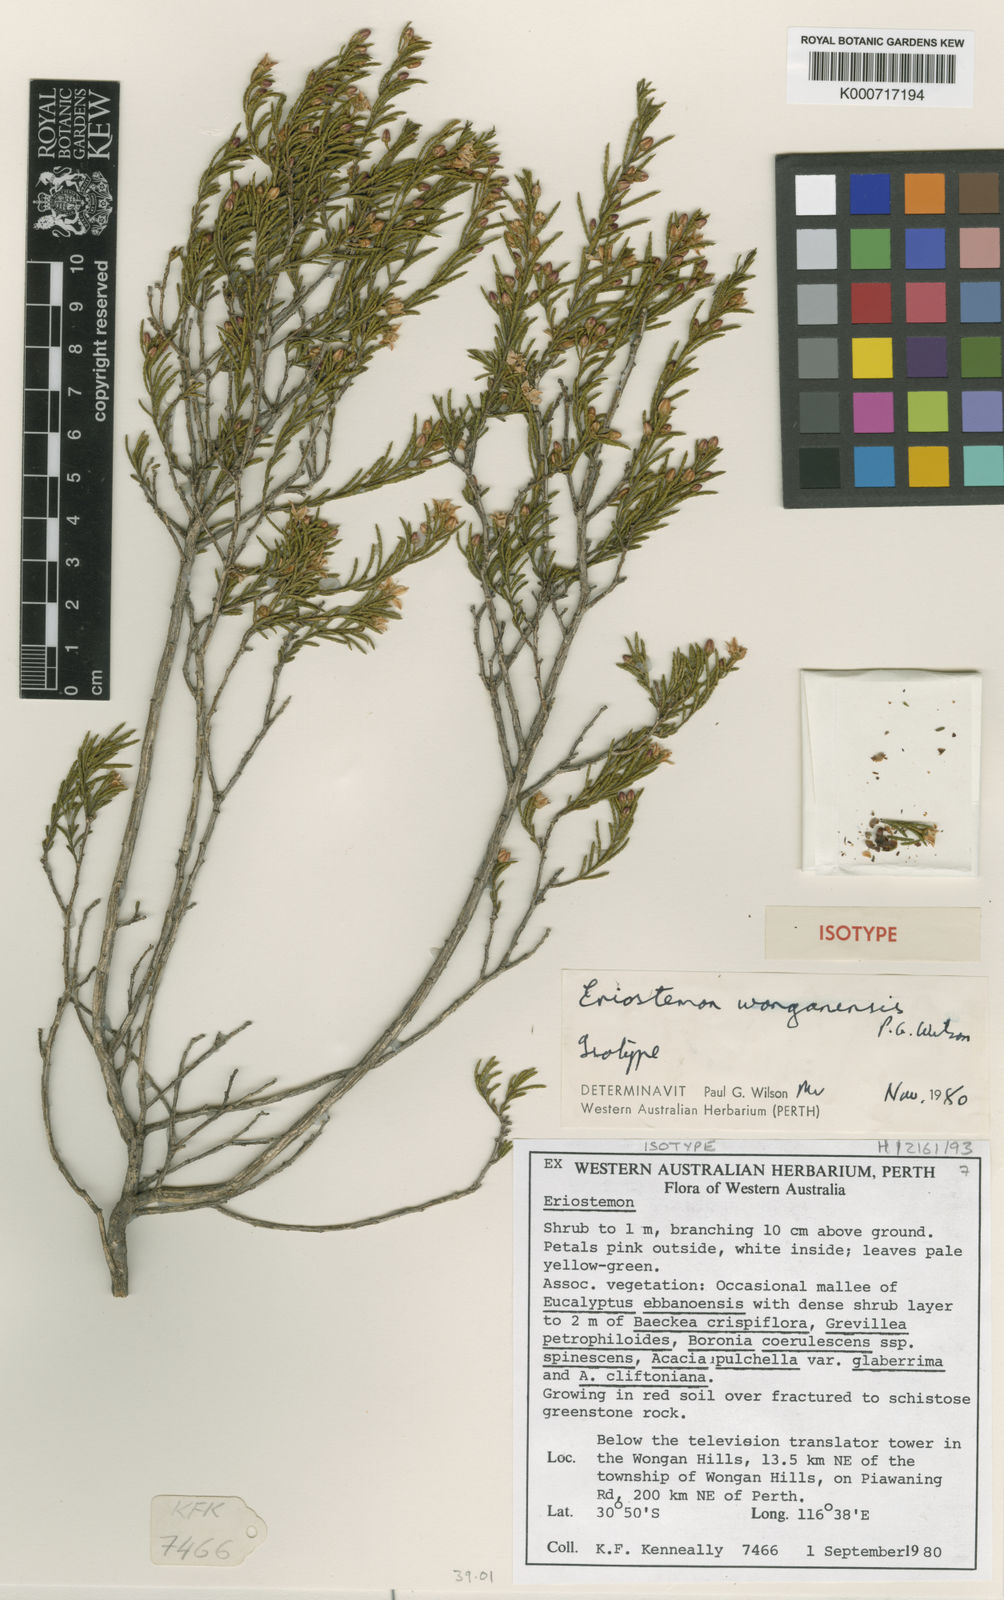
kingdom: Plantae
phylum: Tracheophyta
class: Magnoliopsida
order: Sapindales
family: Rutaceae
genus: Philotheca
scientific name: Philotheca wonganensis
